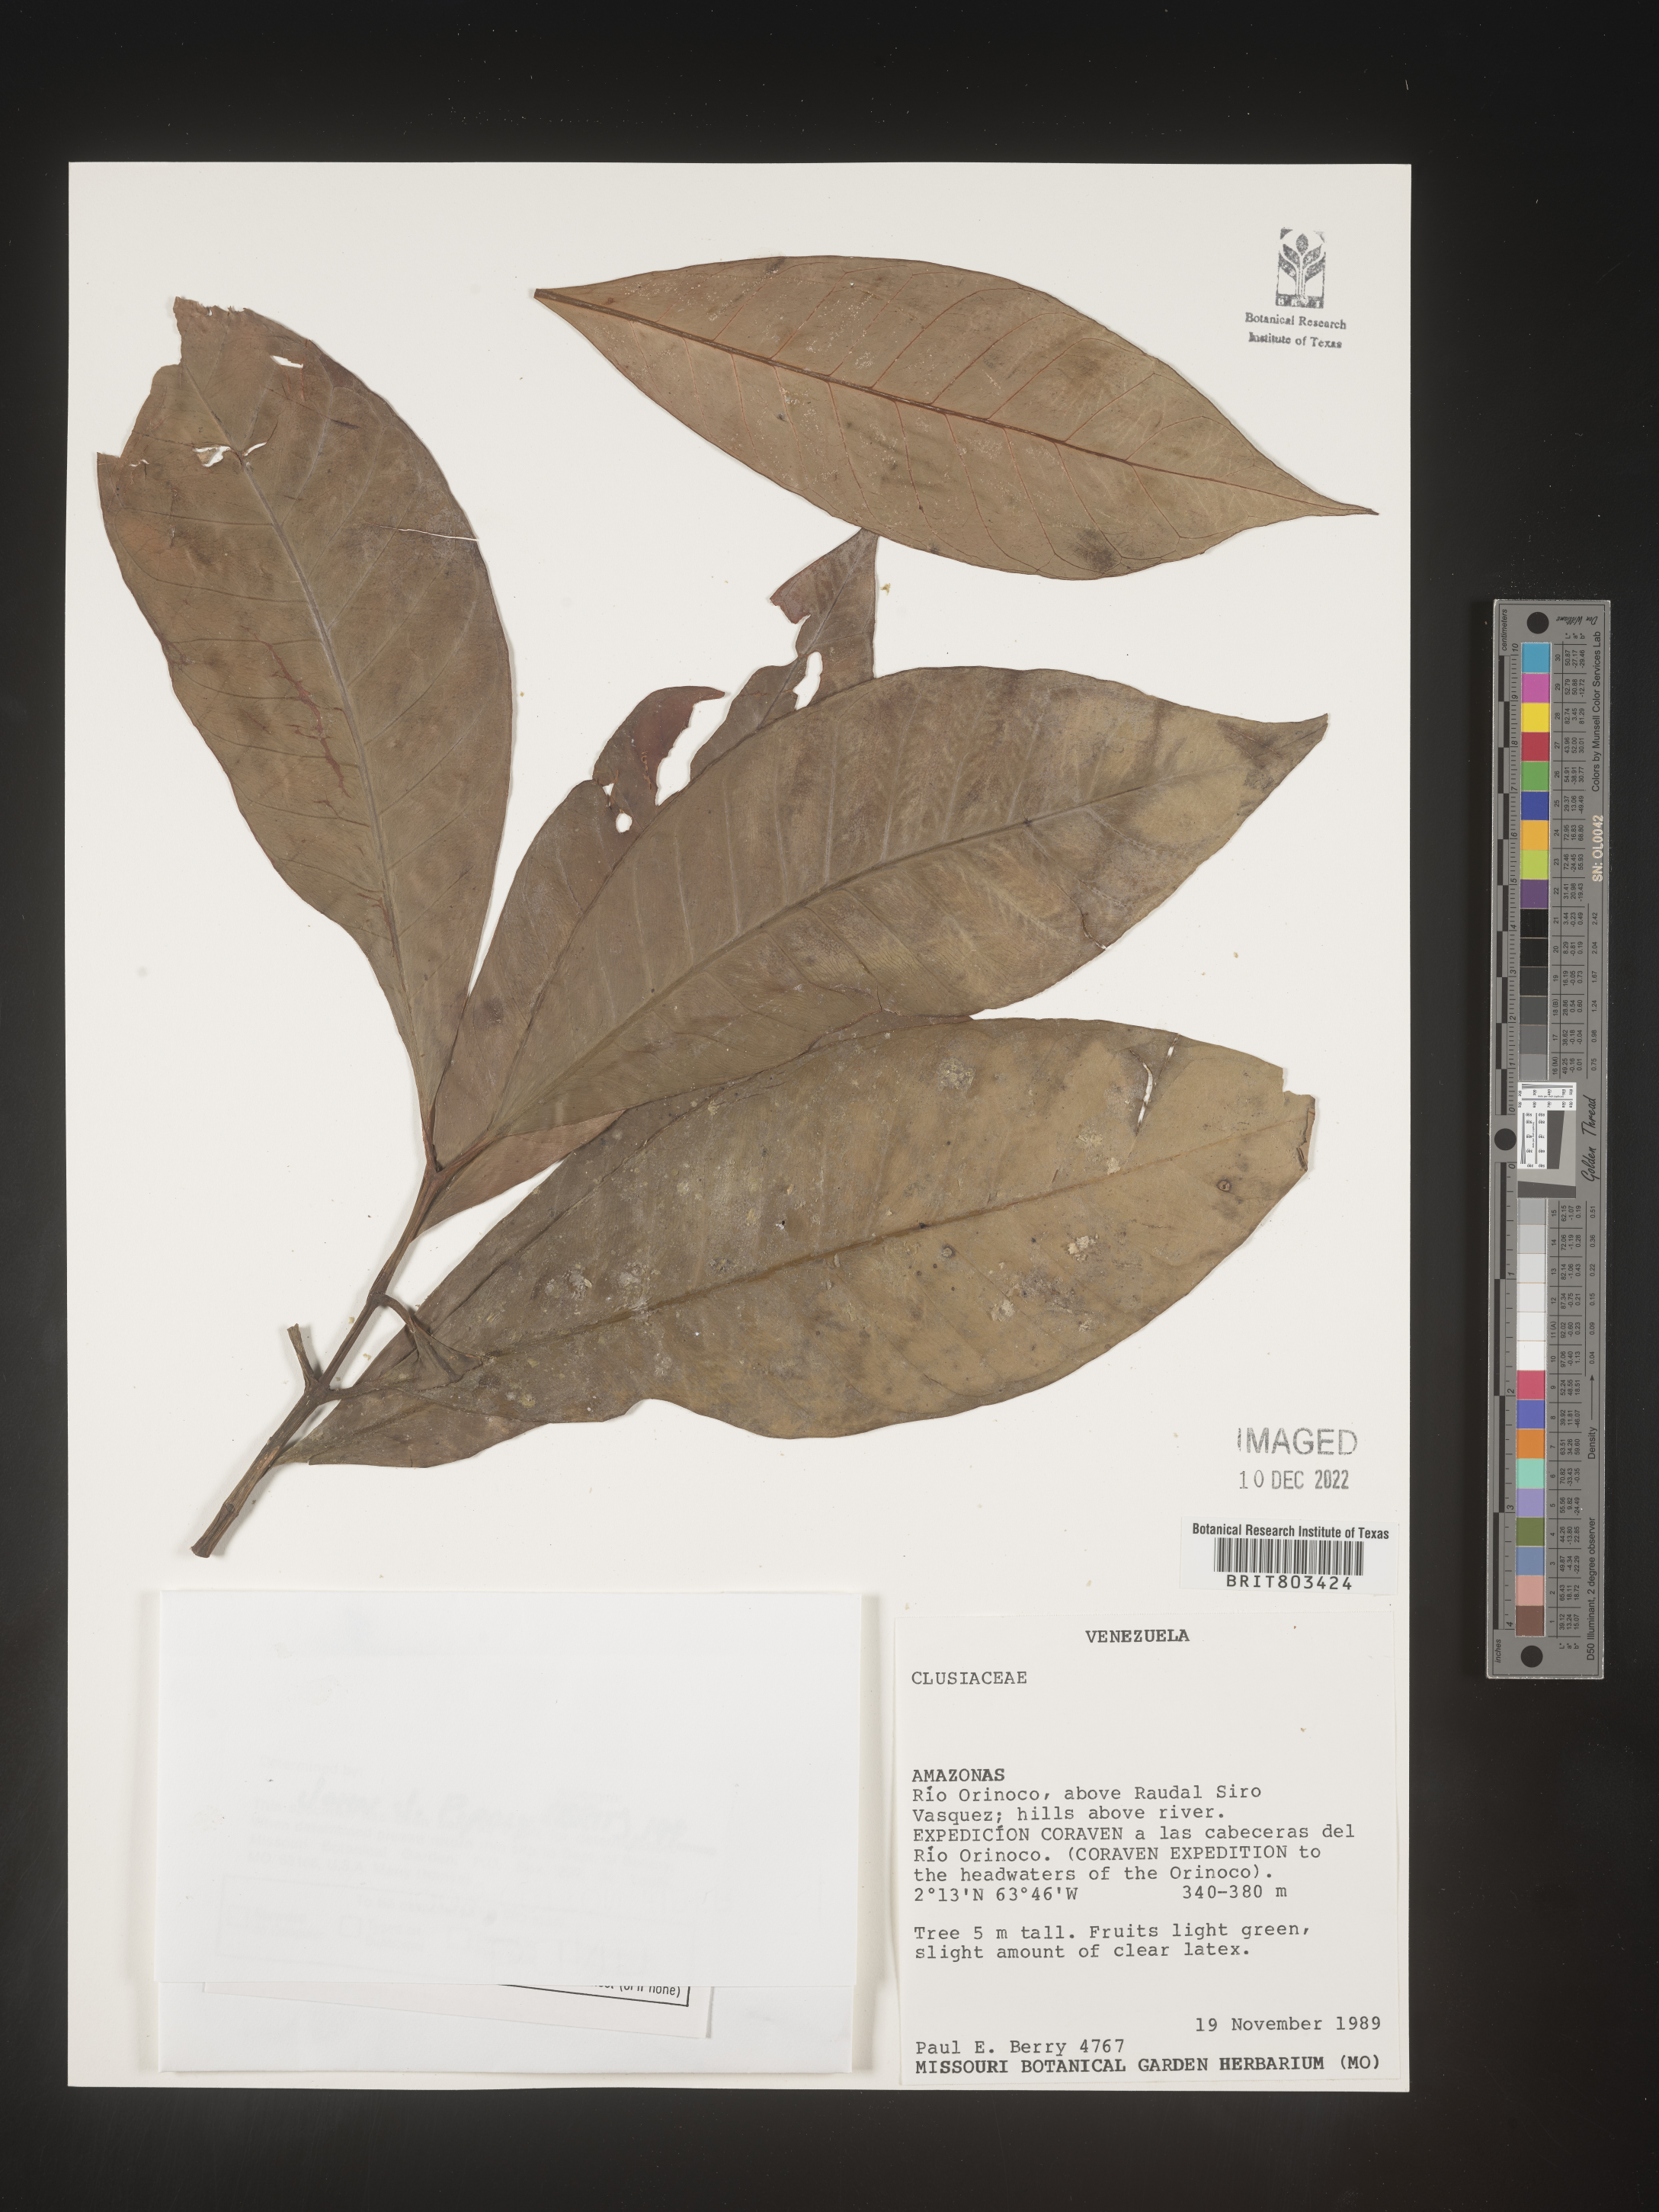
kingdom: Plantae
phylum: Tracheophyta
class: Magnoliopsida
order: Malpighiales
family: Clusiaceae
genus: Tovomita
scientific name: Tovomita
